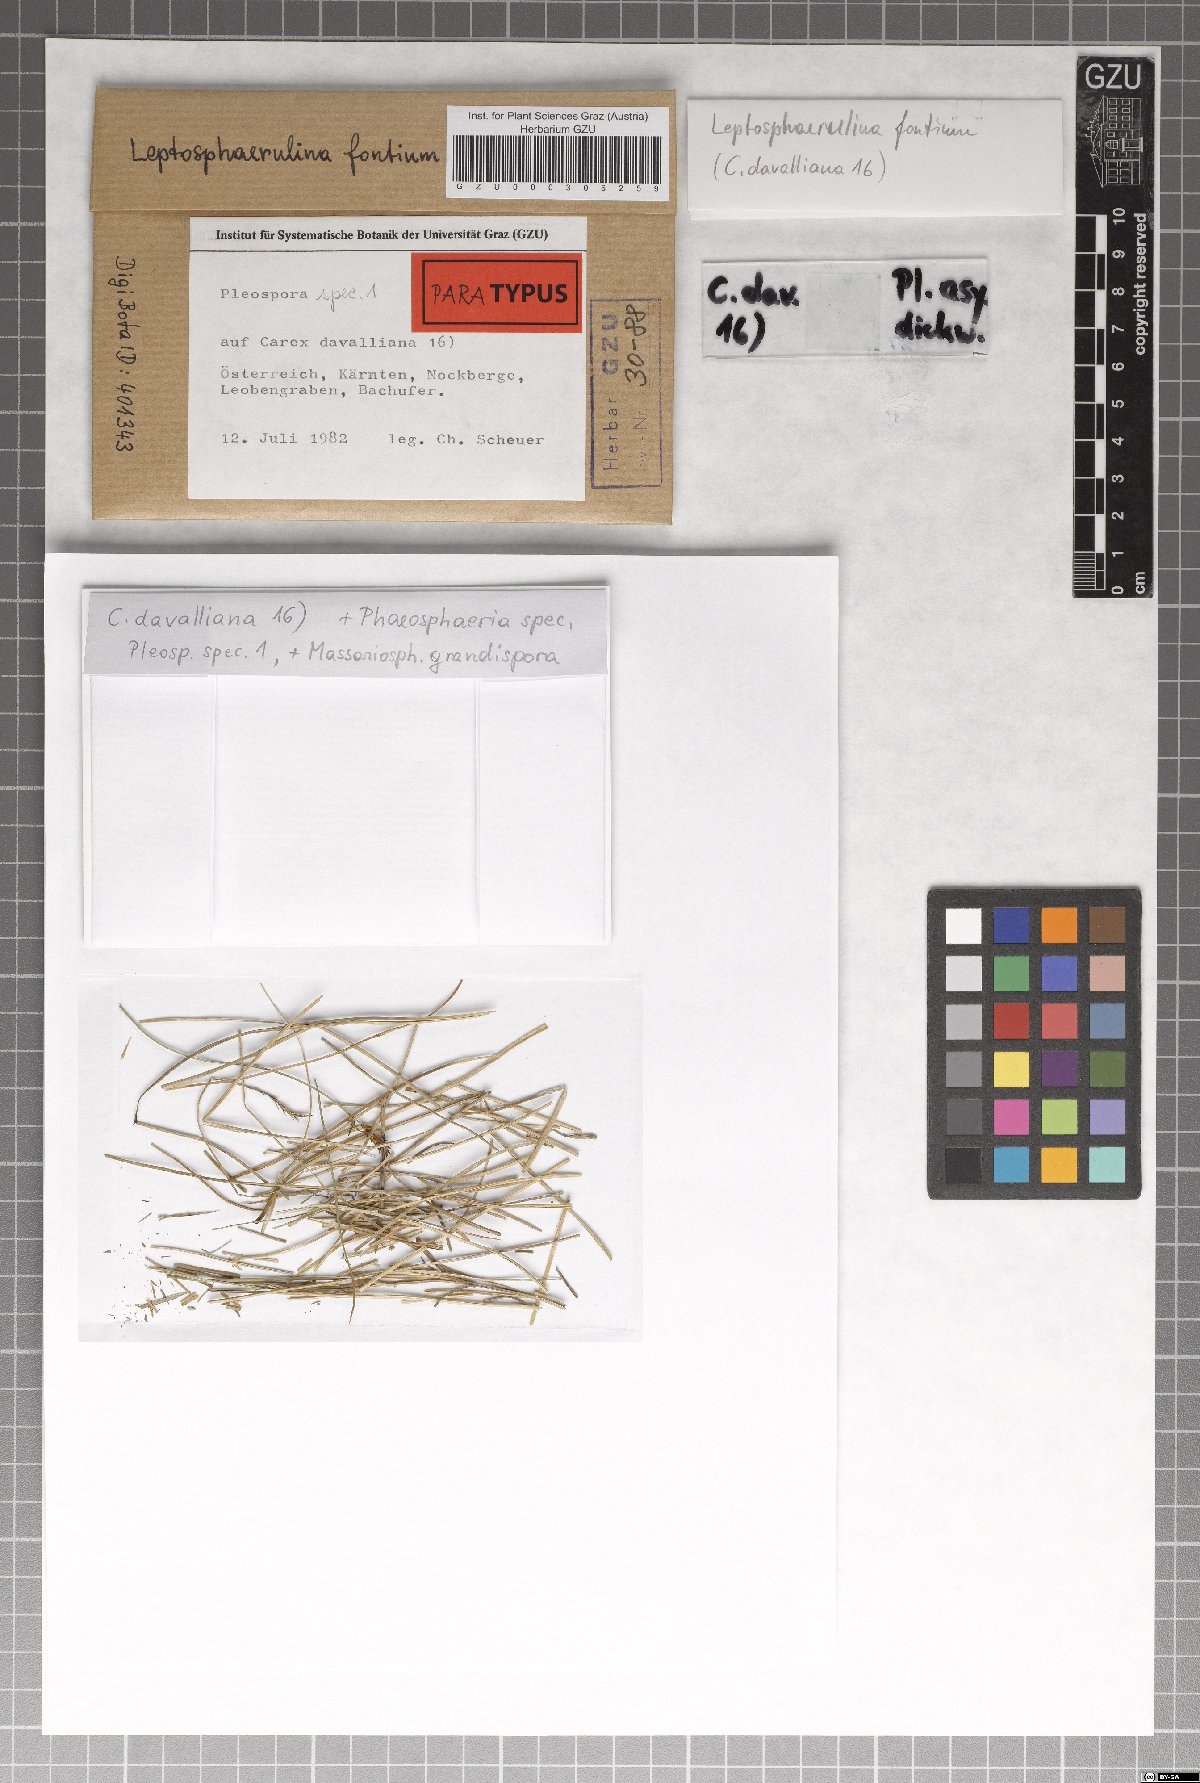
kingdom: Fungi
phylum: Ascomycota
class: Dothideomycetes
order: Pleosporales
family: Didymellaceae
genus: Leptosphaerulina
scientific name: Leptosphaerulina fontium
